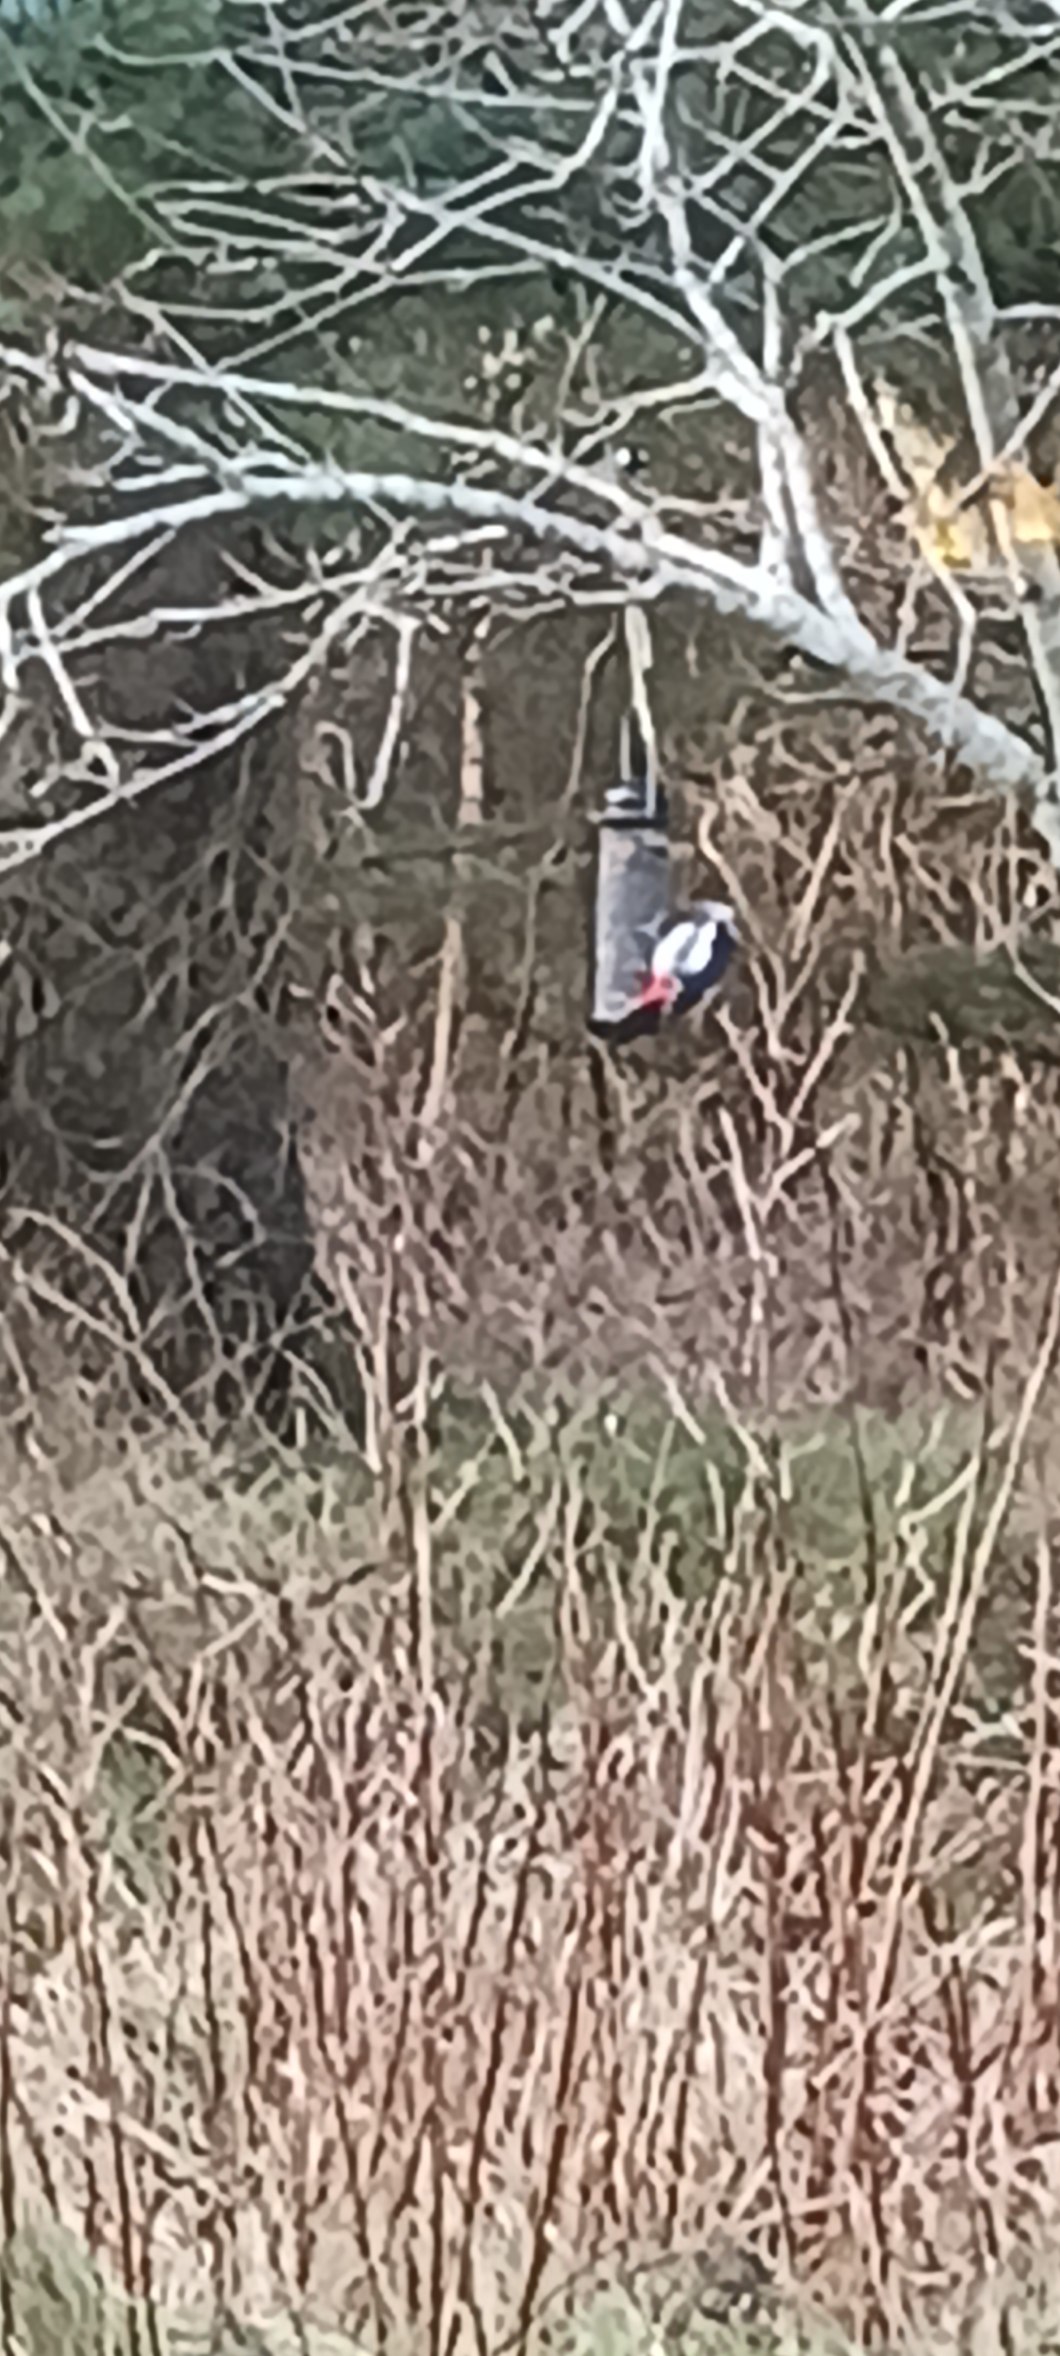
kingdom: Animalia
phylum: Chordata
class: Aves
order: Piciformes
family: Picidae
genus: Dendrocopos
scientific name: Dendrocopos major
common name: Stor flagspætte
